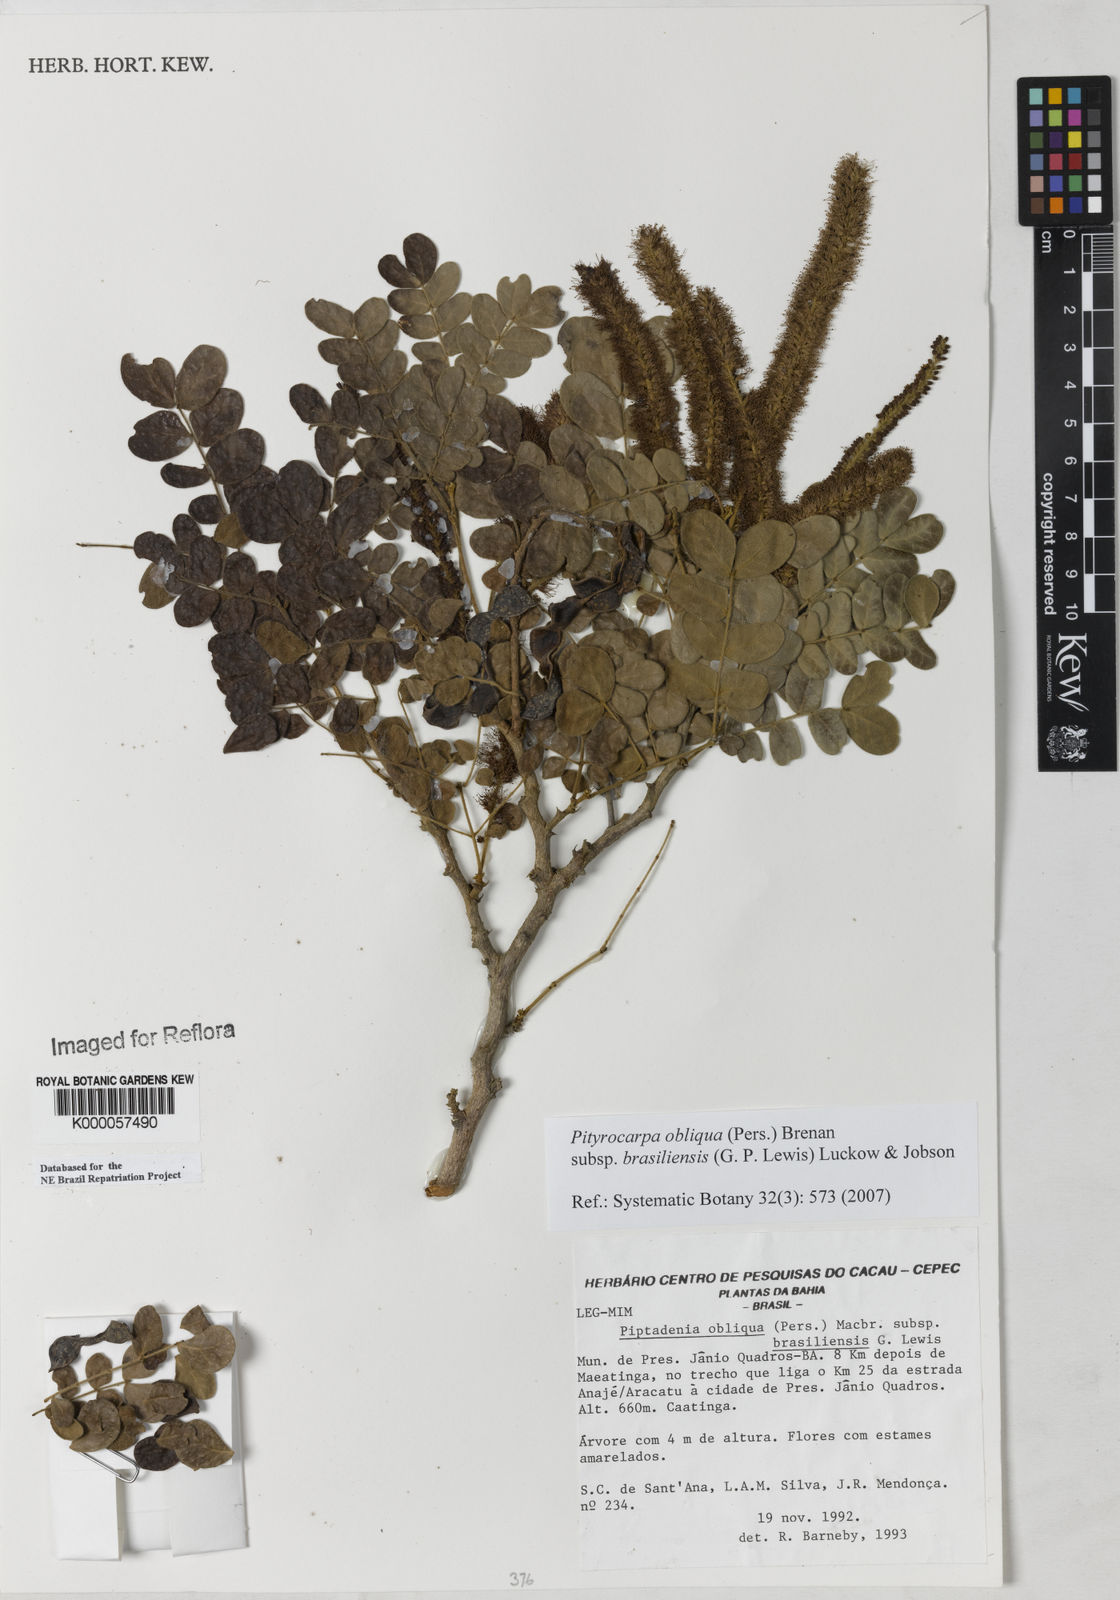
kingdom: Plantae
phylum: Tracheophyta
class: Magnoliopsida
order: Fabales
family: Fabaceae
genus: Pityrocarpa
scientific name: Pityrocarpa obliqua
